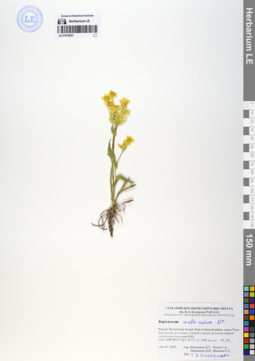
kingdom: Plantae
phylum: Tracheophyta
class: Magnoliopsida
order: Apiales
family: Apiaceae
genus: Bupleurum
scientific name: Bupleurum multinerve
